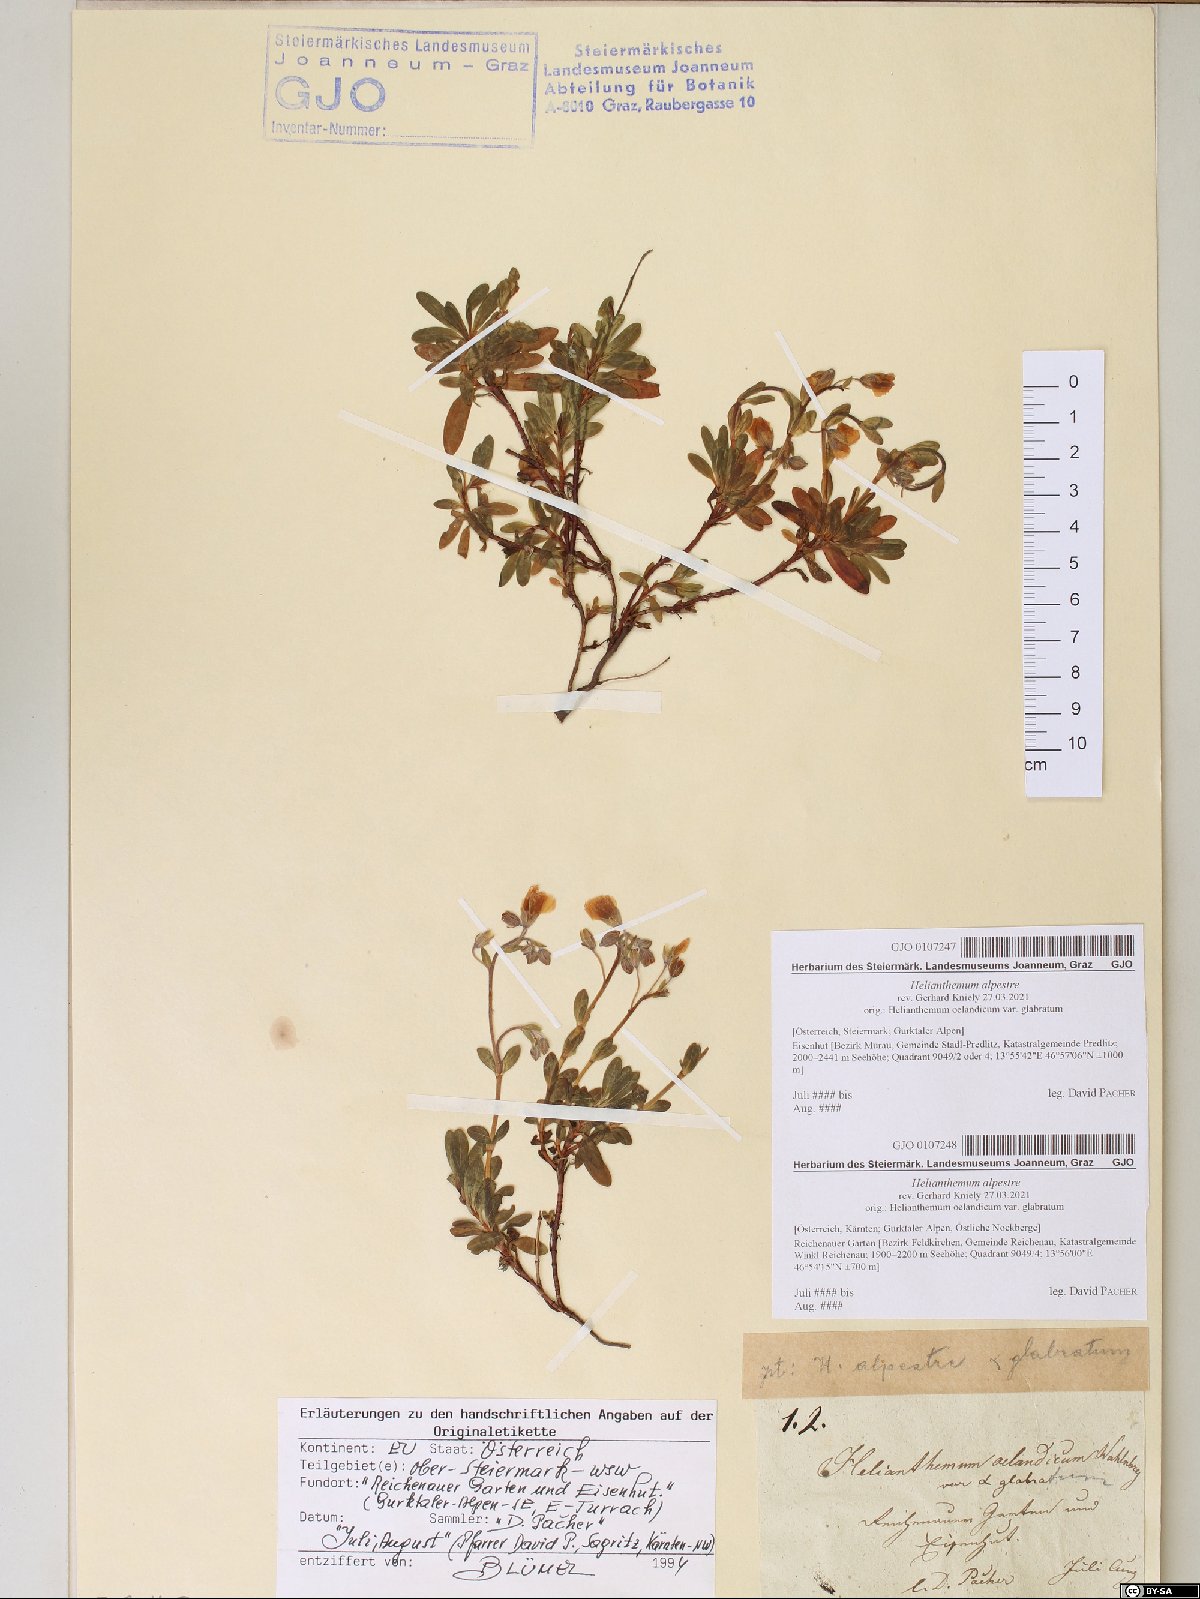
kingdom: Plantae
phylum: Tracheophyta
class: Magnoliopsida
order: Malvales
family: Cistaceae
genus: Helianthemum
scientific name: Helianthemum alpestre
